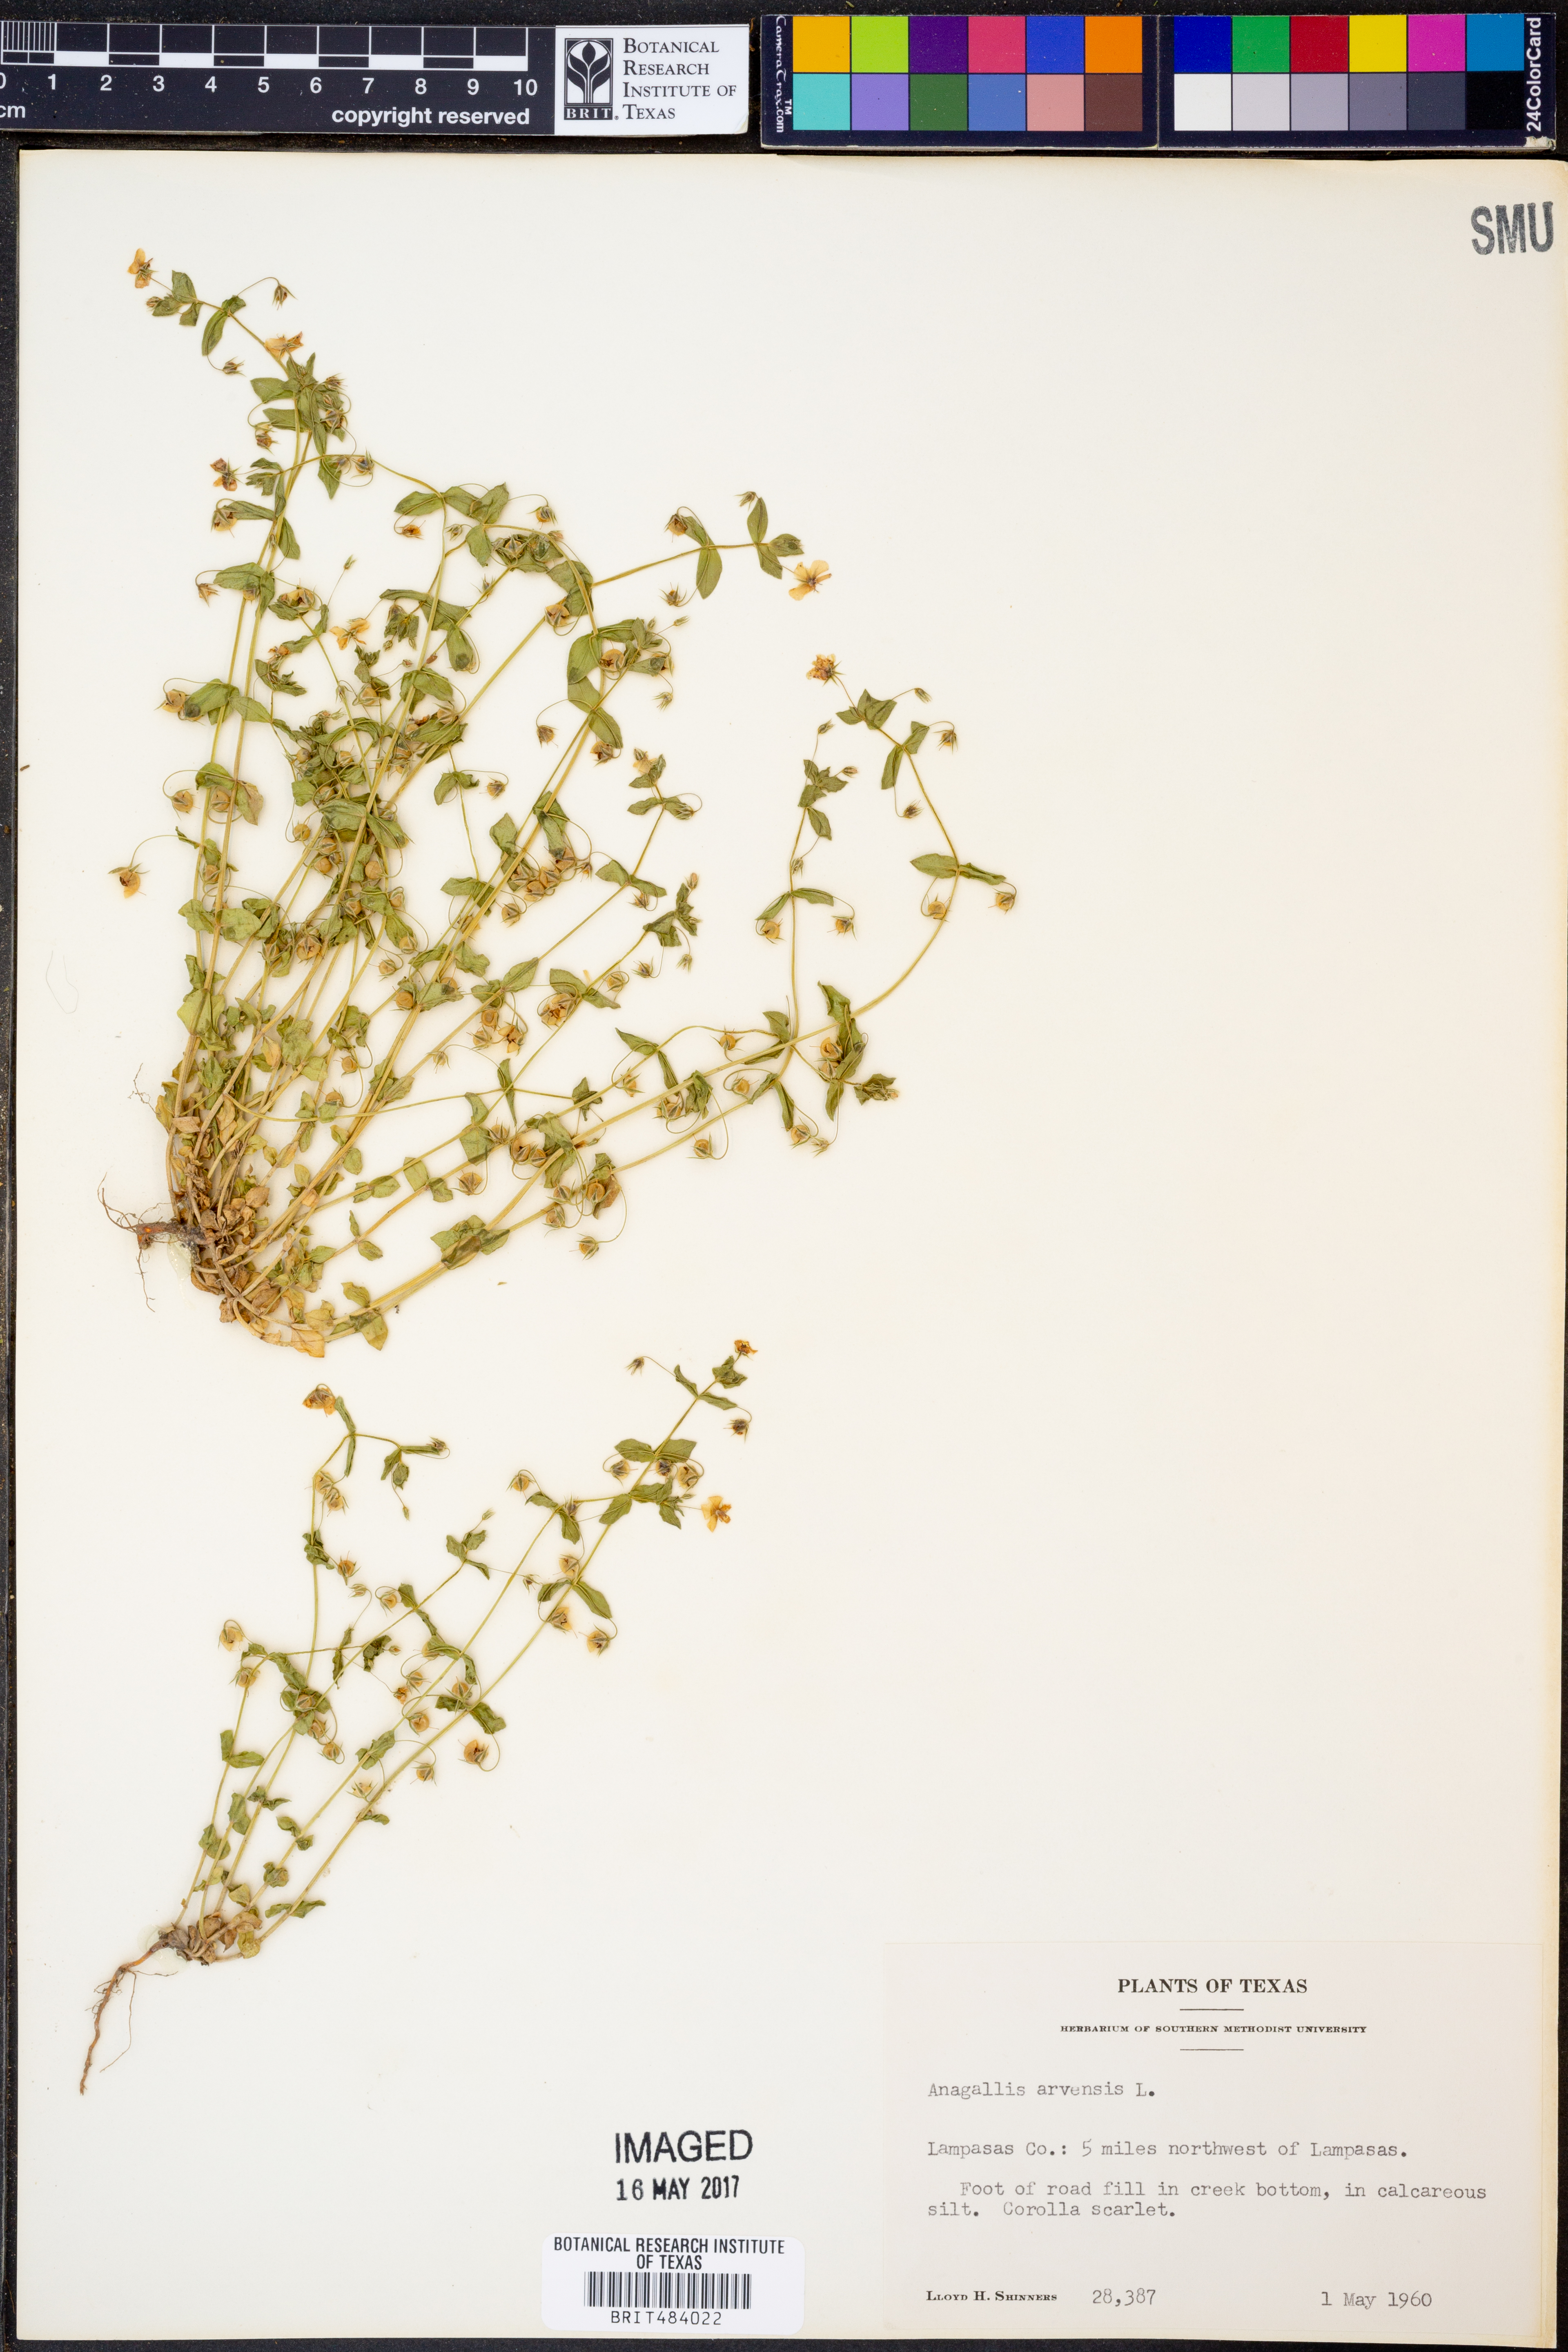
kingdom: Plantae
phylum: Tracheophyta
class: Magnoliopsida
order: Ericales
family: Primulaceae
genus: Lysimachia
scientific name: Lysimachia arvensis
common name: Scarlet pimpernel
